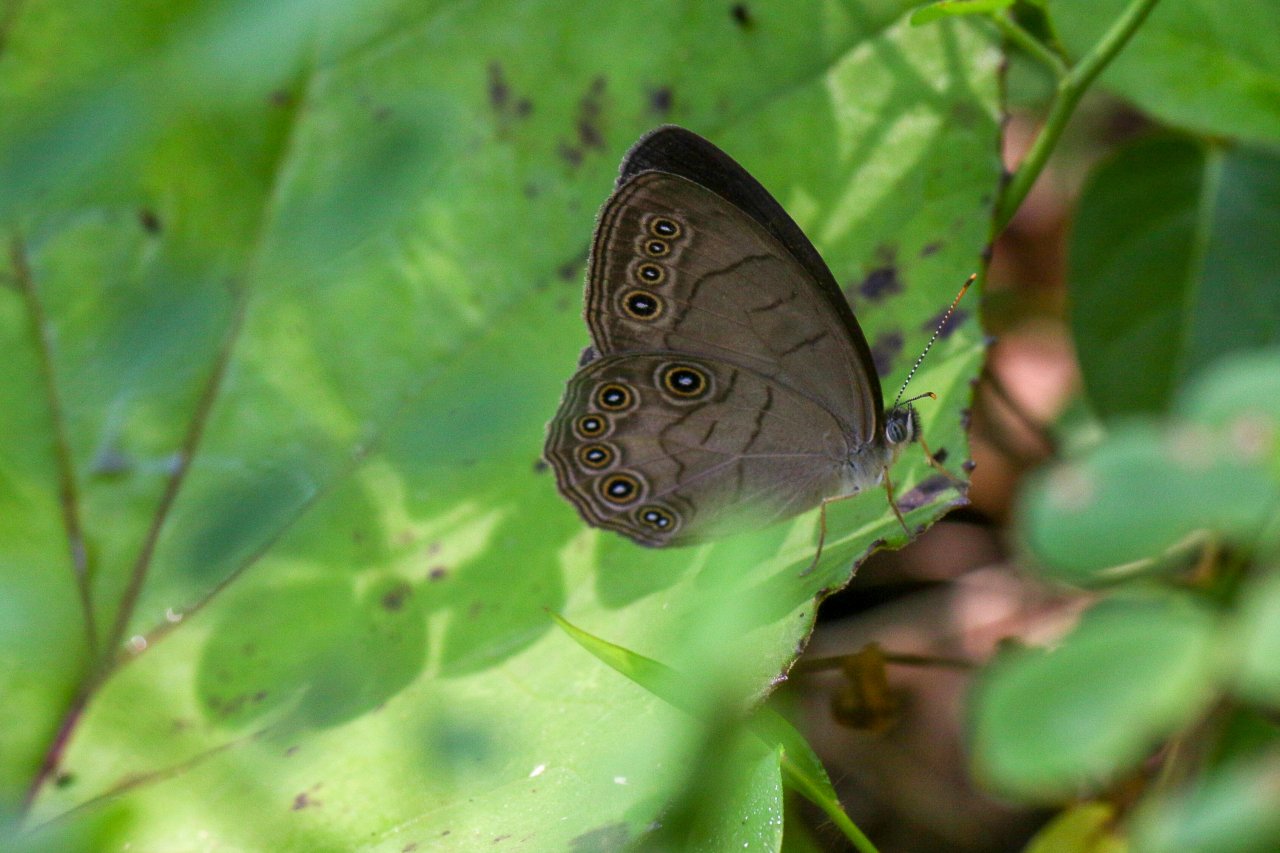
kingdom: Animalia
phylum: Arthropoda
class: Insecta
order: Lepidoptera
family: Nymphalidae
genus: Lethe
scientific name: Lethe eurydice
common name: Appalachian Eyed Brown
